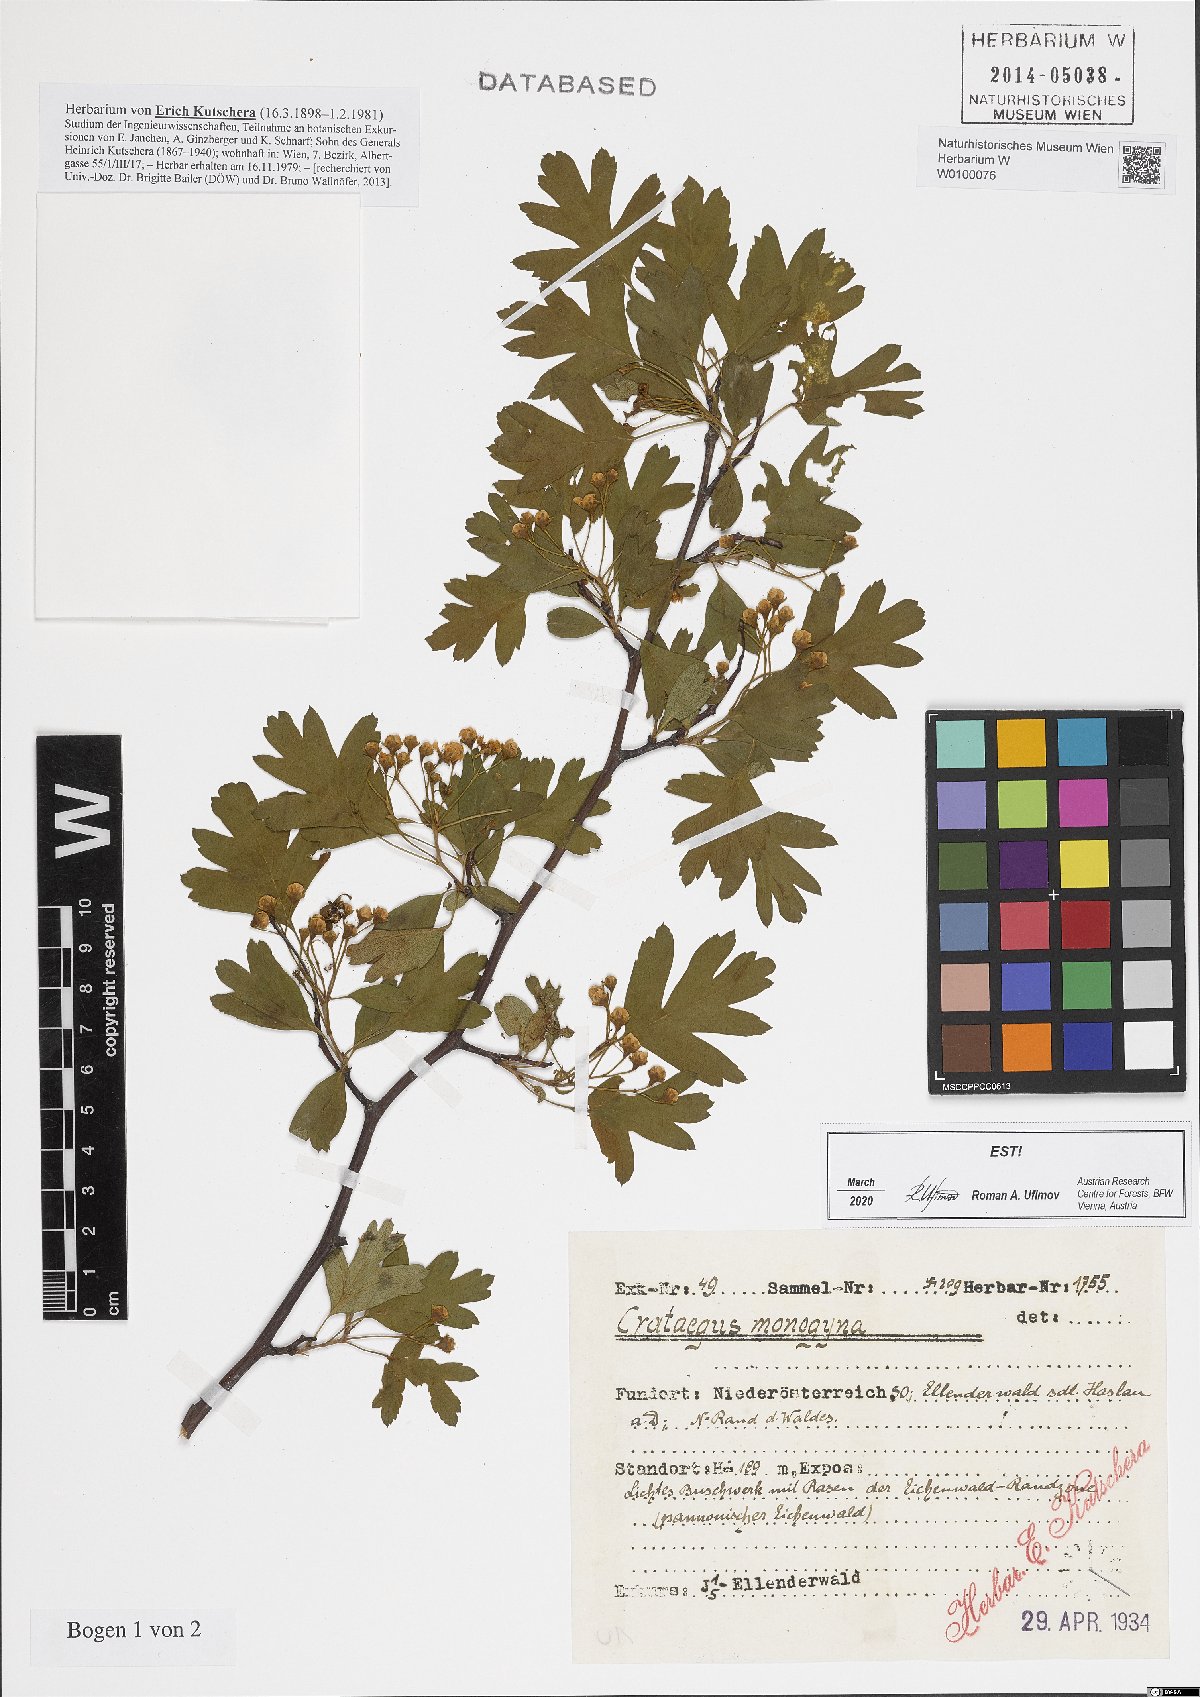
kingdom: Plantae
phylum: Tracheophyta
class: Magnoliopsida
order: Rosales
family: Rosaceae
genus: Crataegus
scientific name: Crataegus monogyna
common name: Hawthorn
